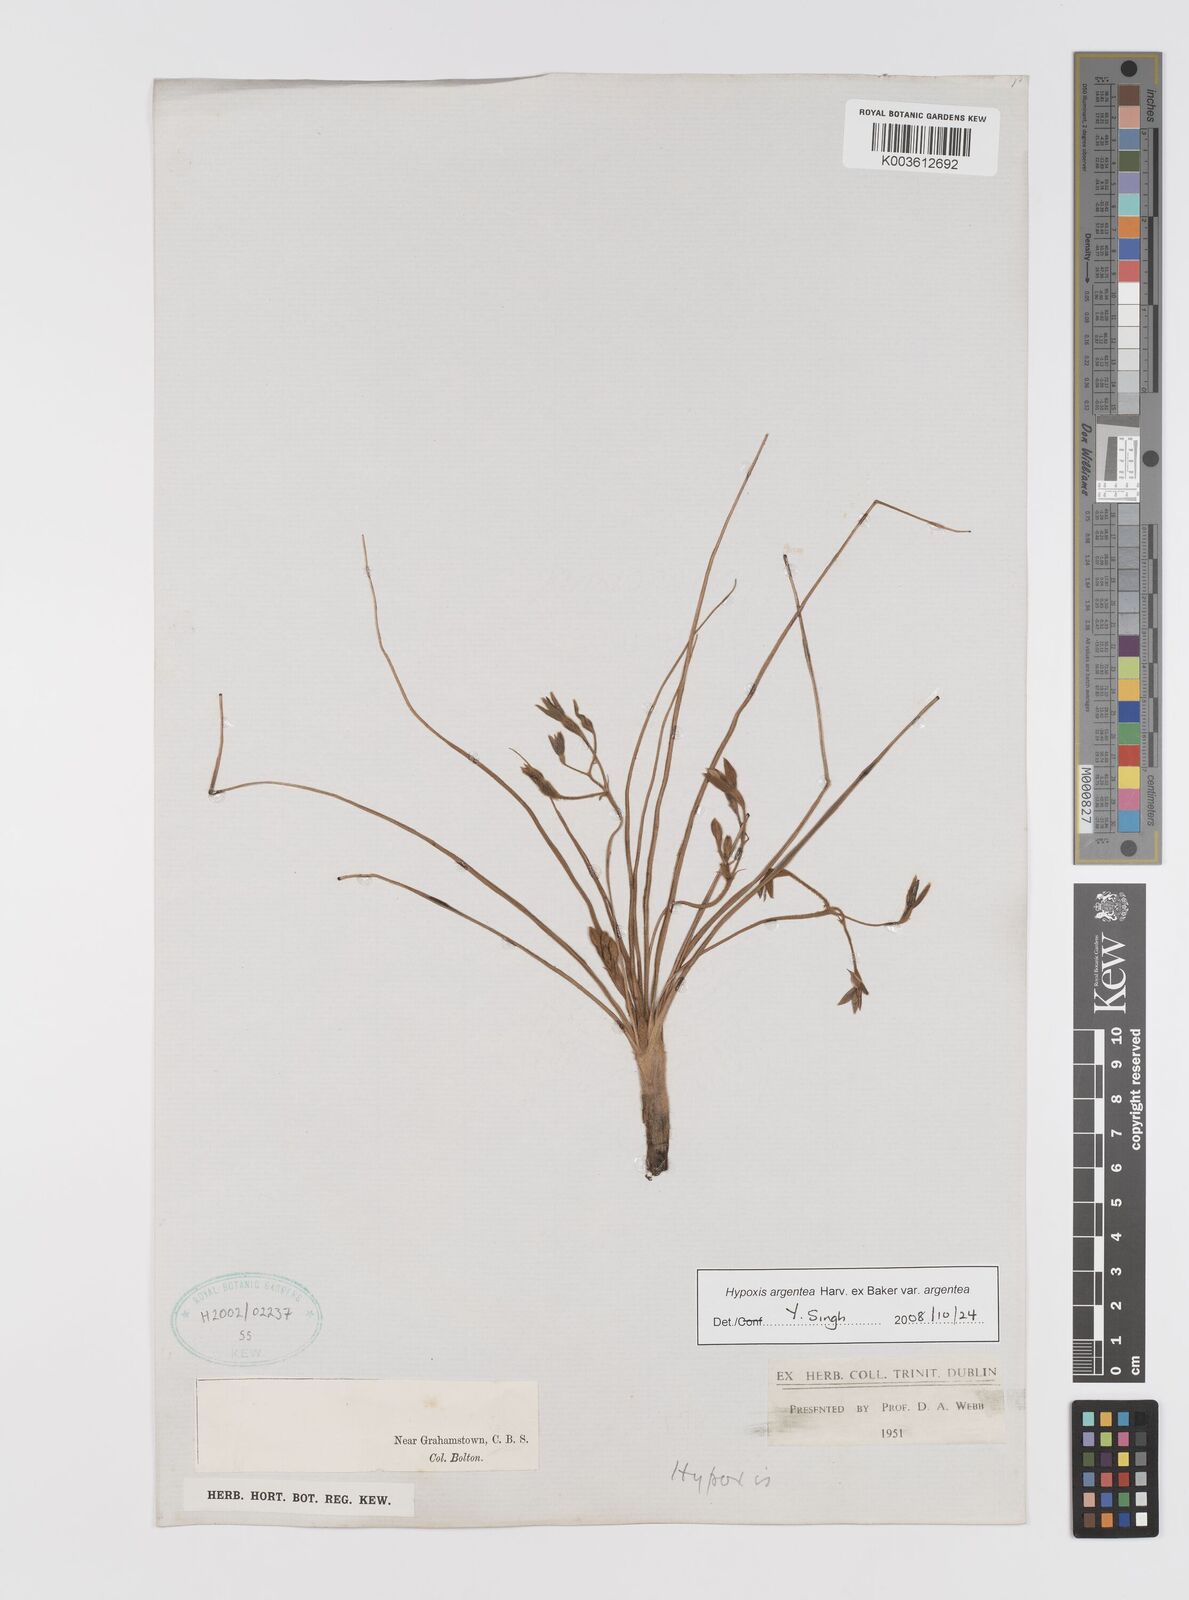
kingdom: Plantae
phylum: Tracheophyta
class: Liliopsida
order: Asparagales
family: Hypoxidaceae
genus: Hypoxis
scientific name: Hypoxis argentea
